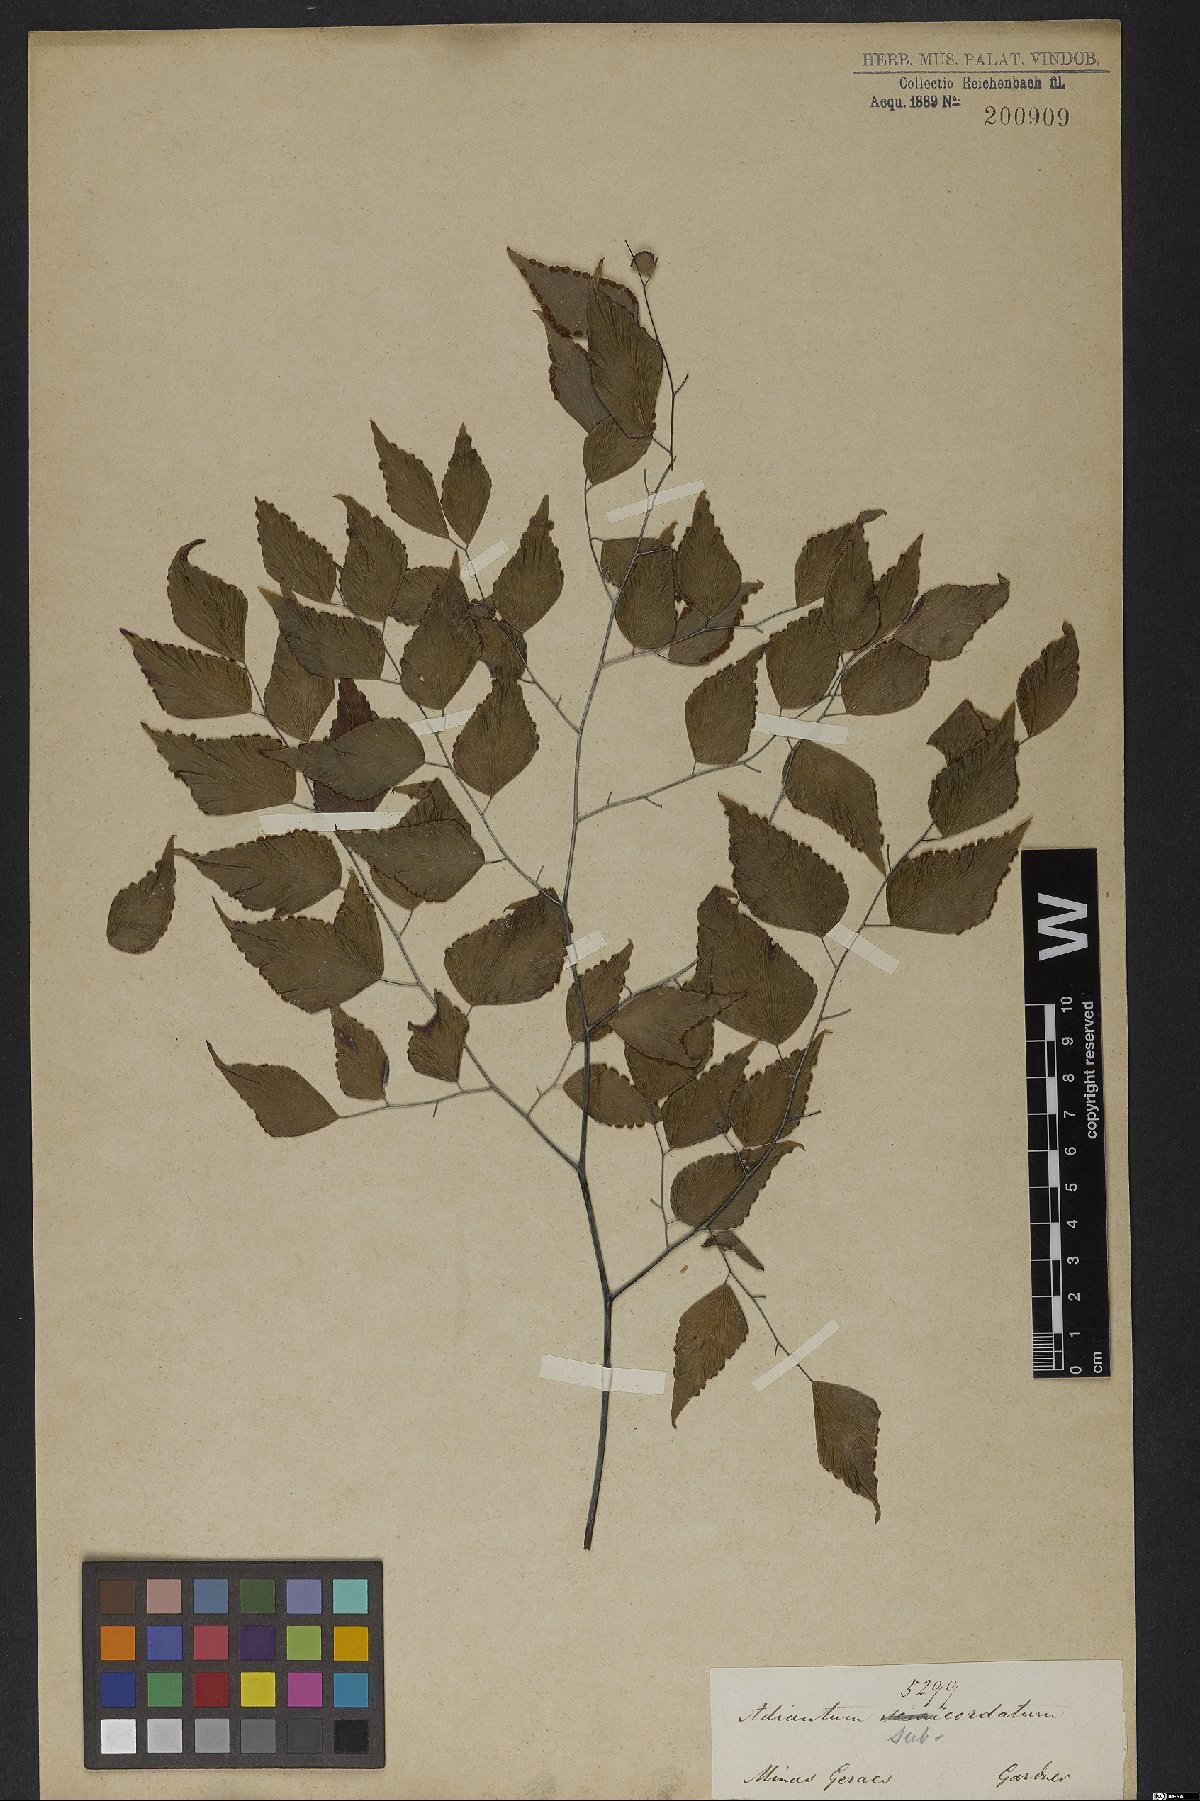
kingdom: Plantae
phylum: Tracheophyta
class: Polypodiopsida
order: Polypodiales
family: Pteridaceae
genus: Adiantum
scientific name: Adiantum subcordatum
